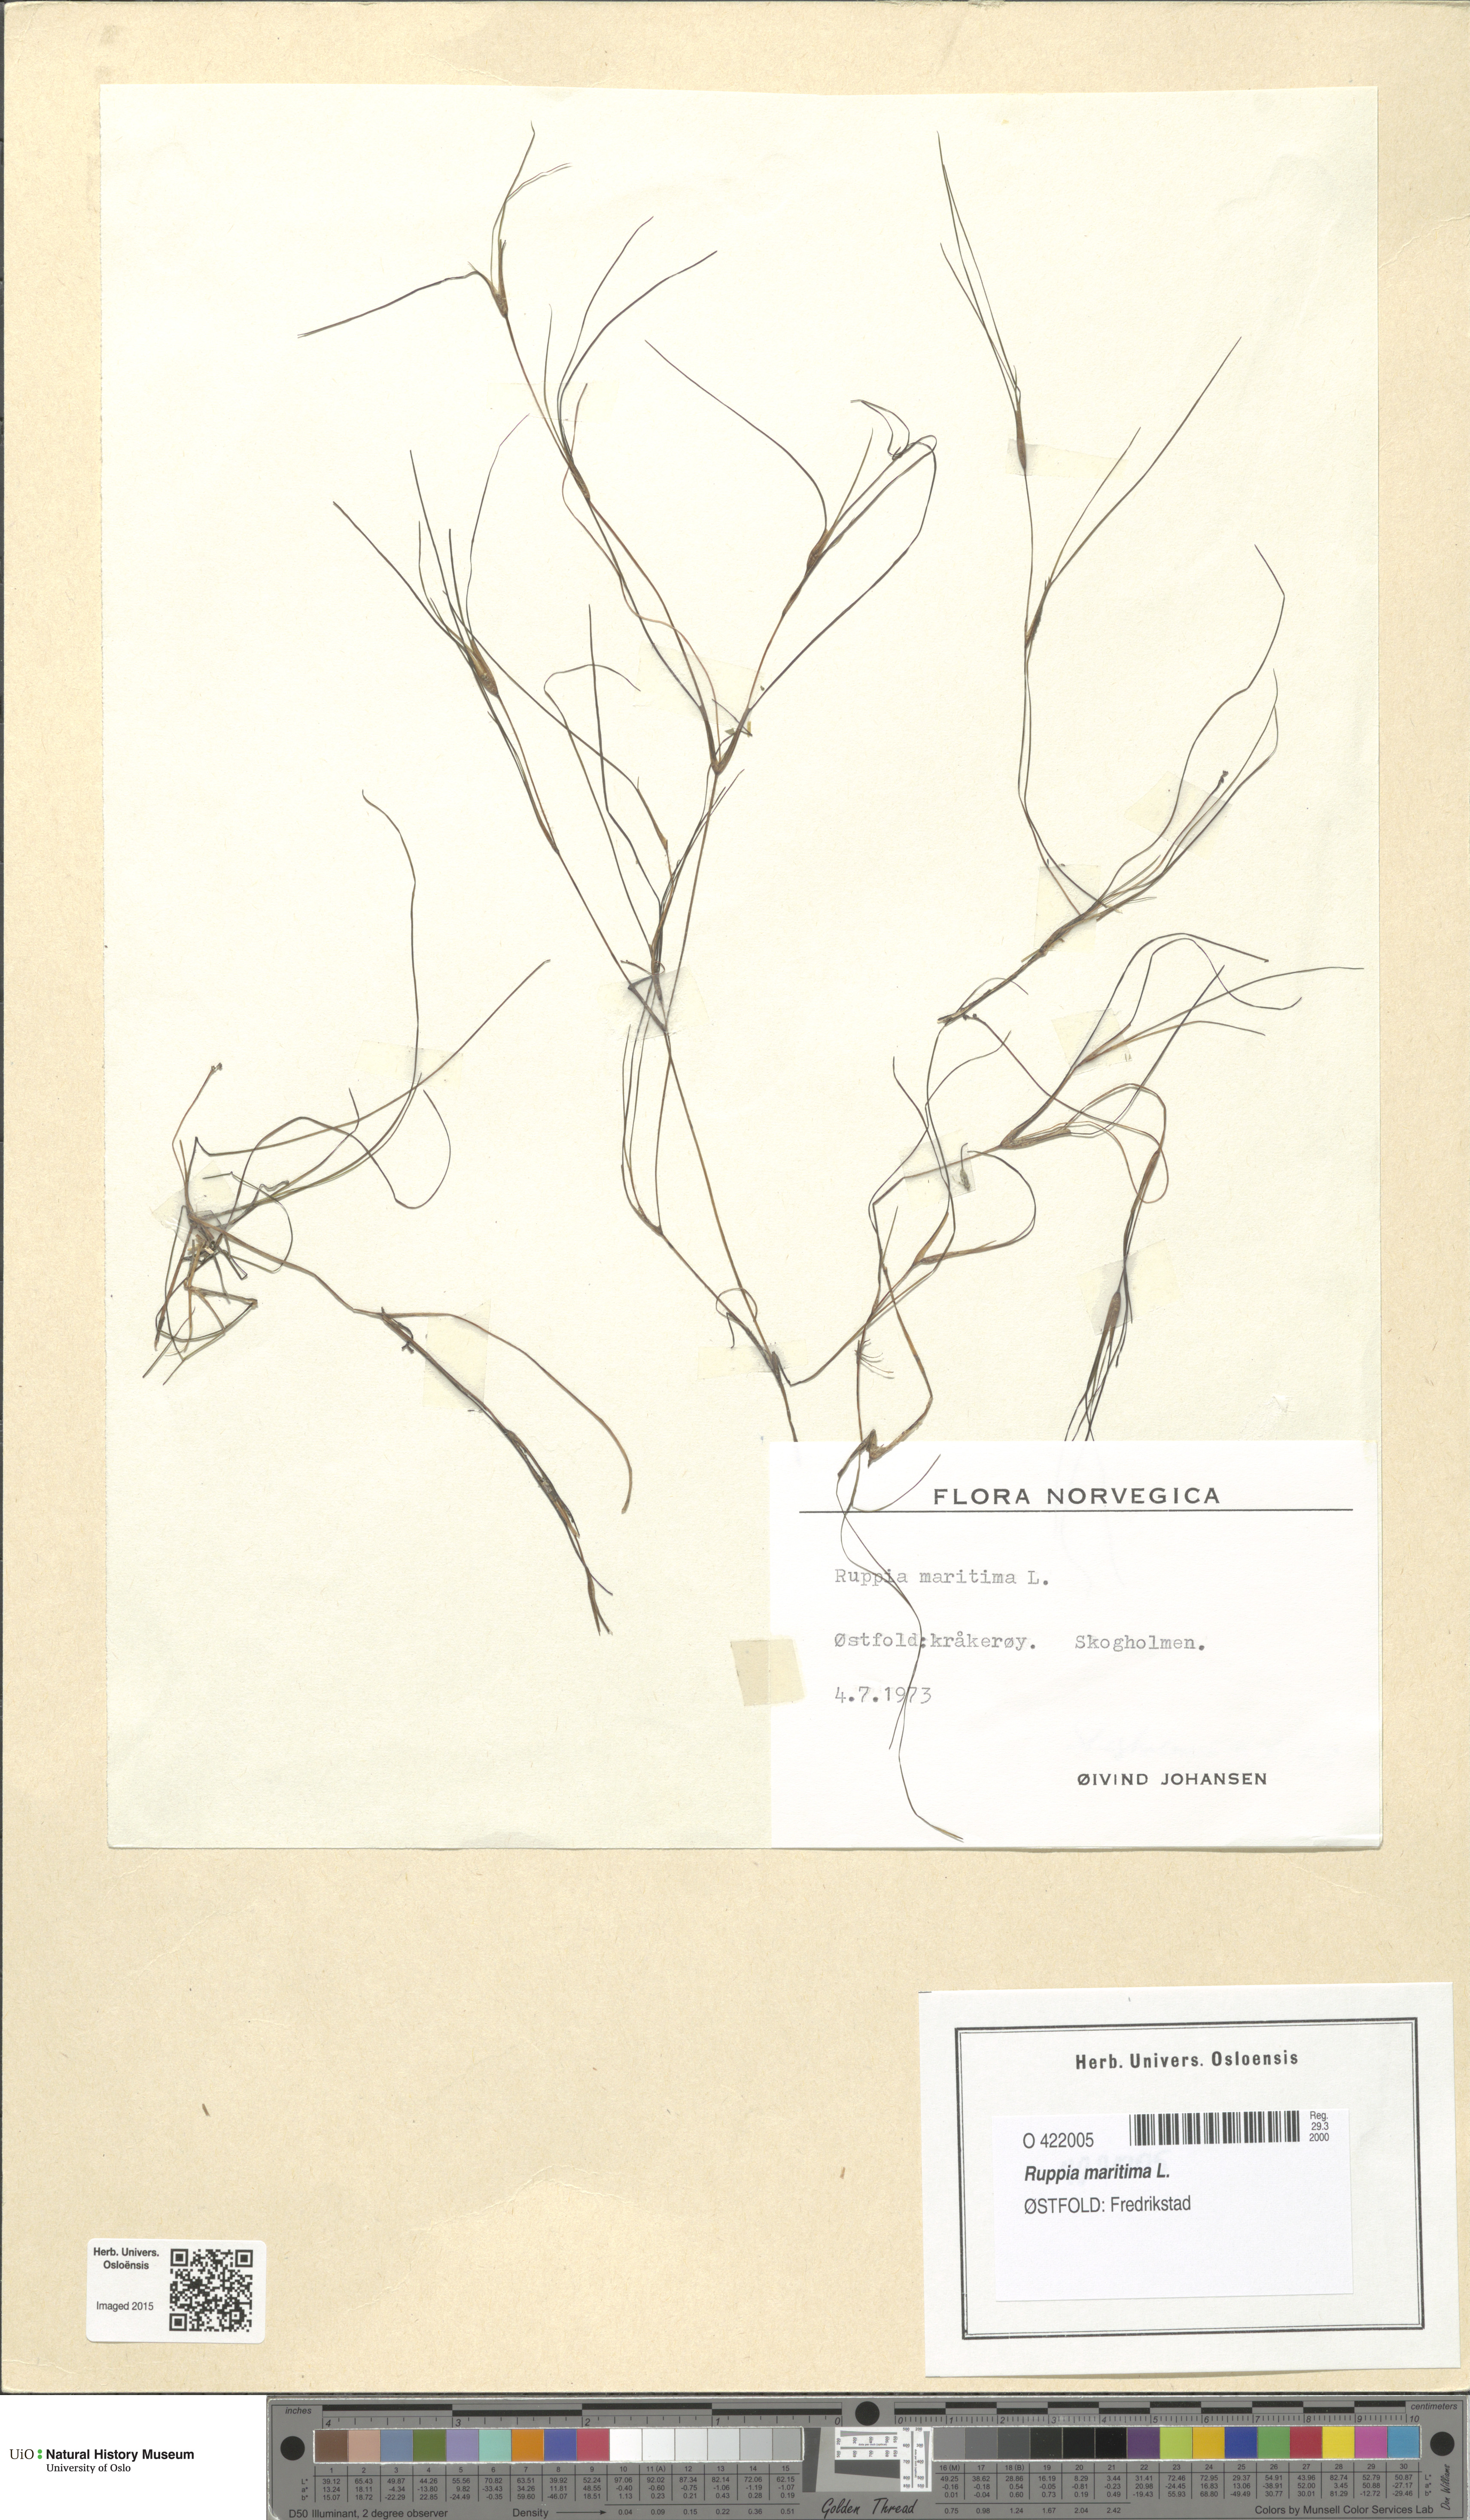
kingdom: Plantae
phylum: Tracheophyta
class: Liliopsida
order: Alismatales
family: Ruppiaceae
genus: Ruppia
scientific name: Ruppia maritima
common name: Beaked tasselweed
